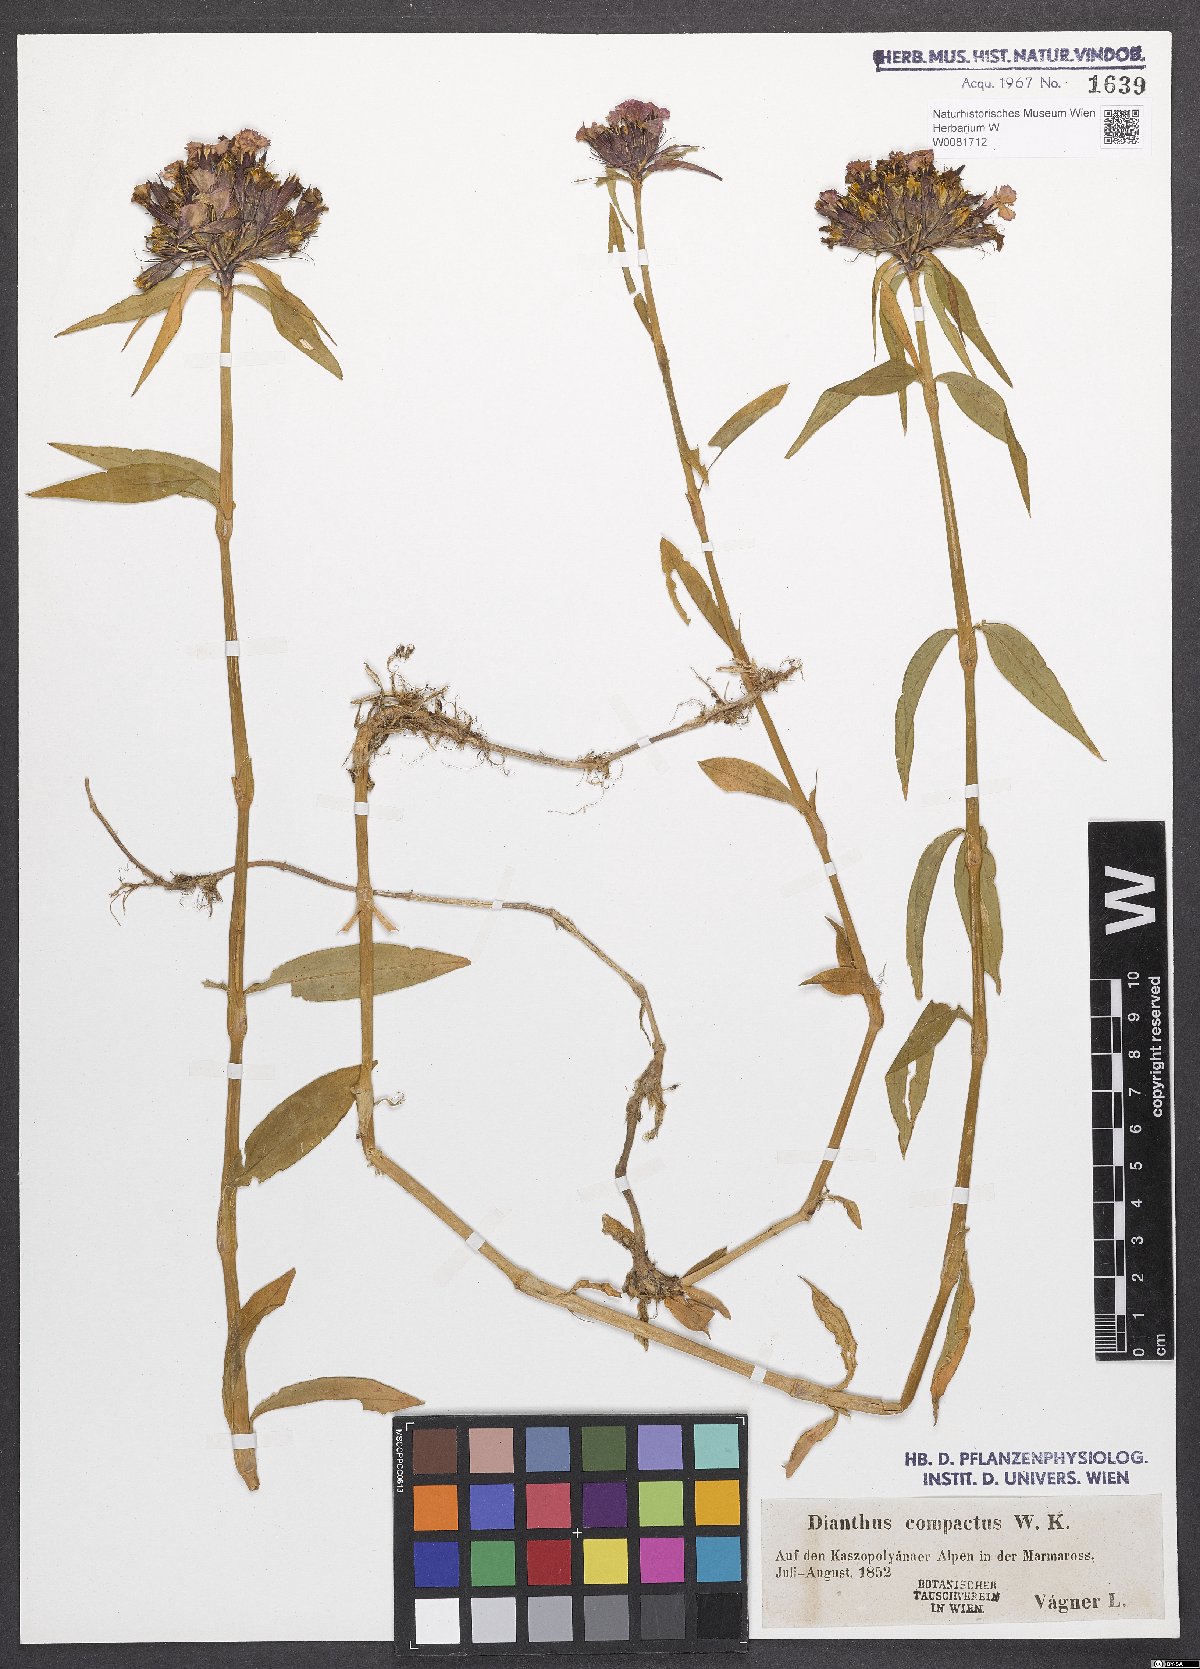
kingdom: Plantae
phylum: Tracheophyta
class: Magnoliopsida
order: Caryophyllales
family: Caryophyllaceae
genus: Dianthus
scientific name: Dianthus barbatus
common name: Sweet-william
